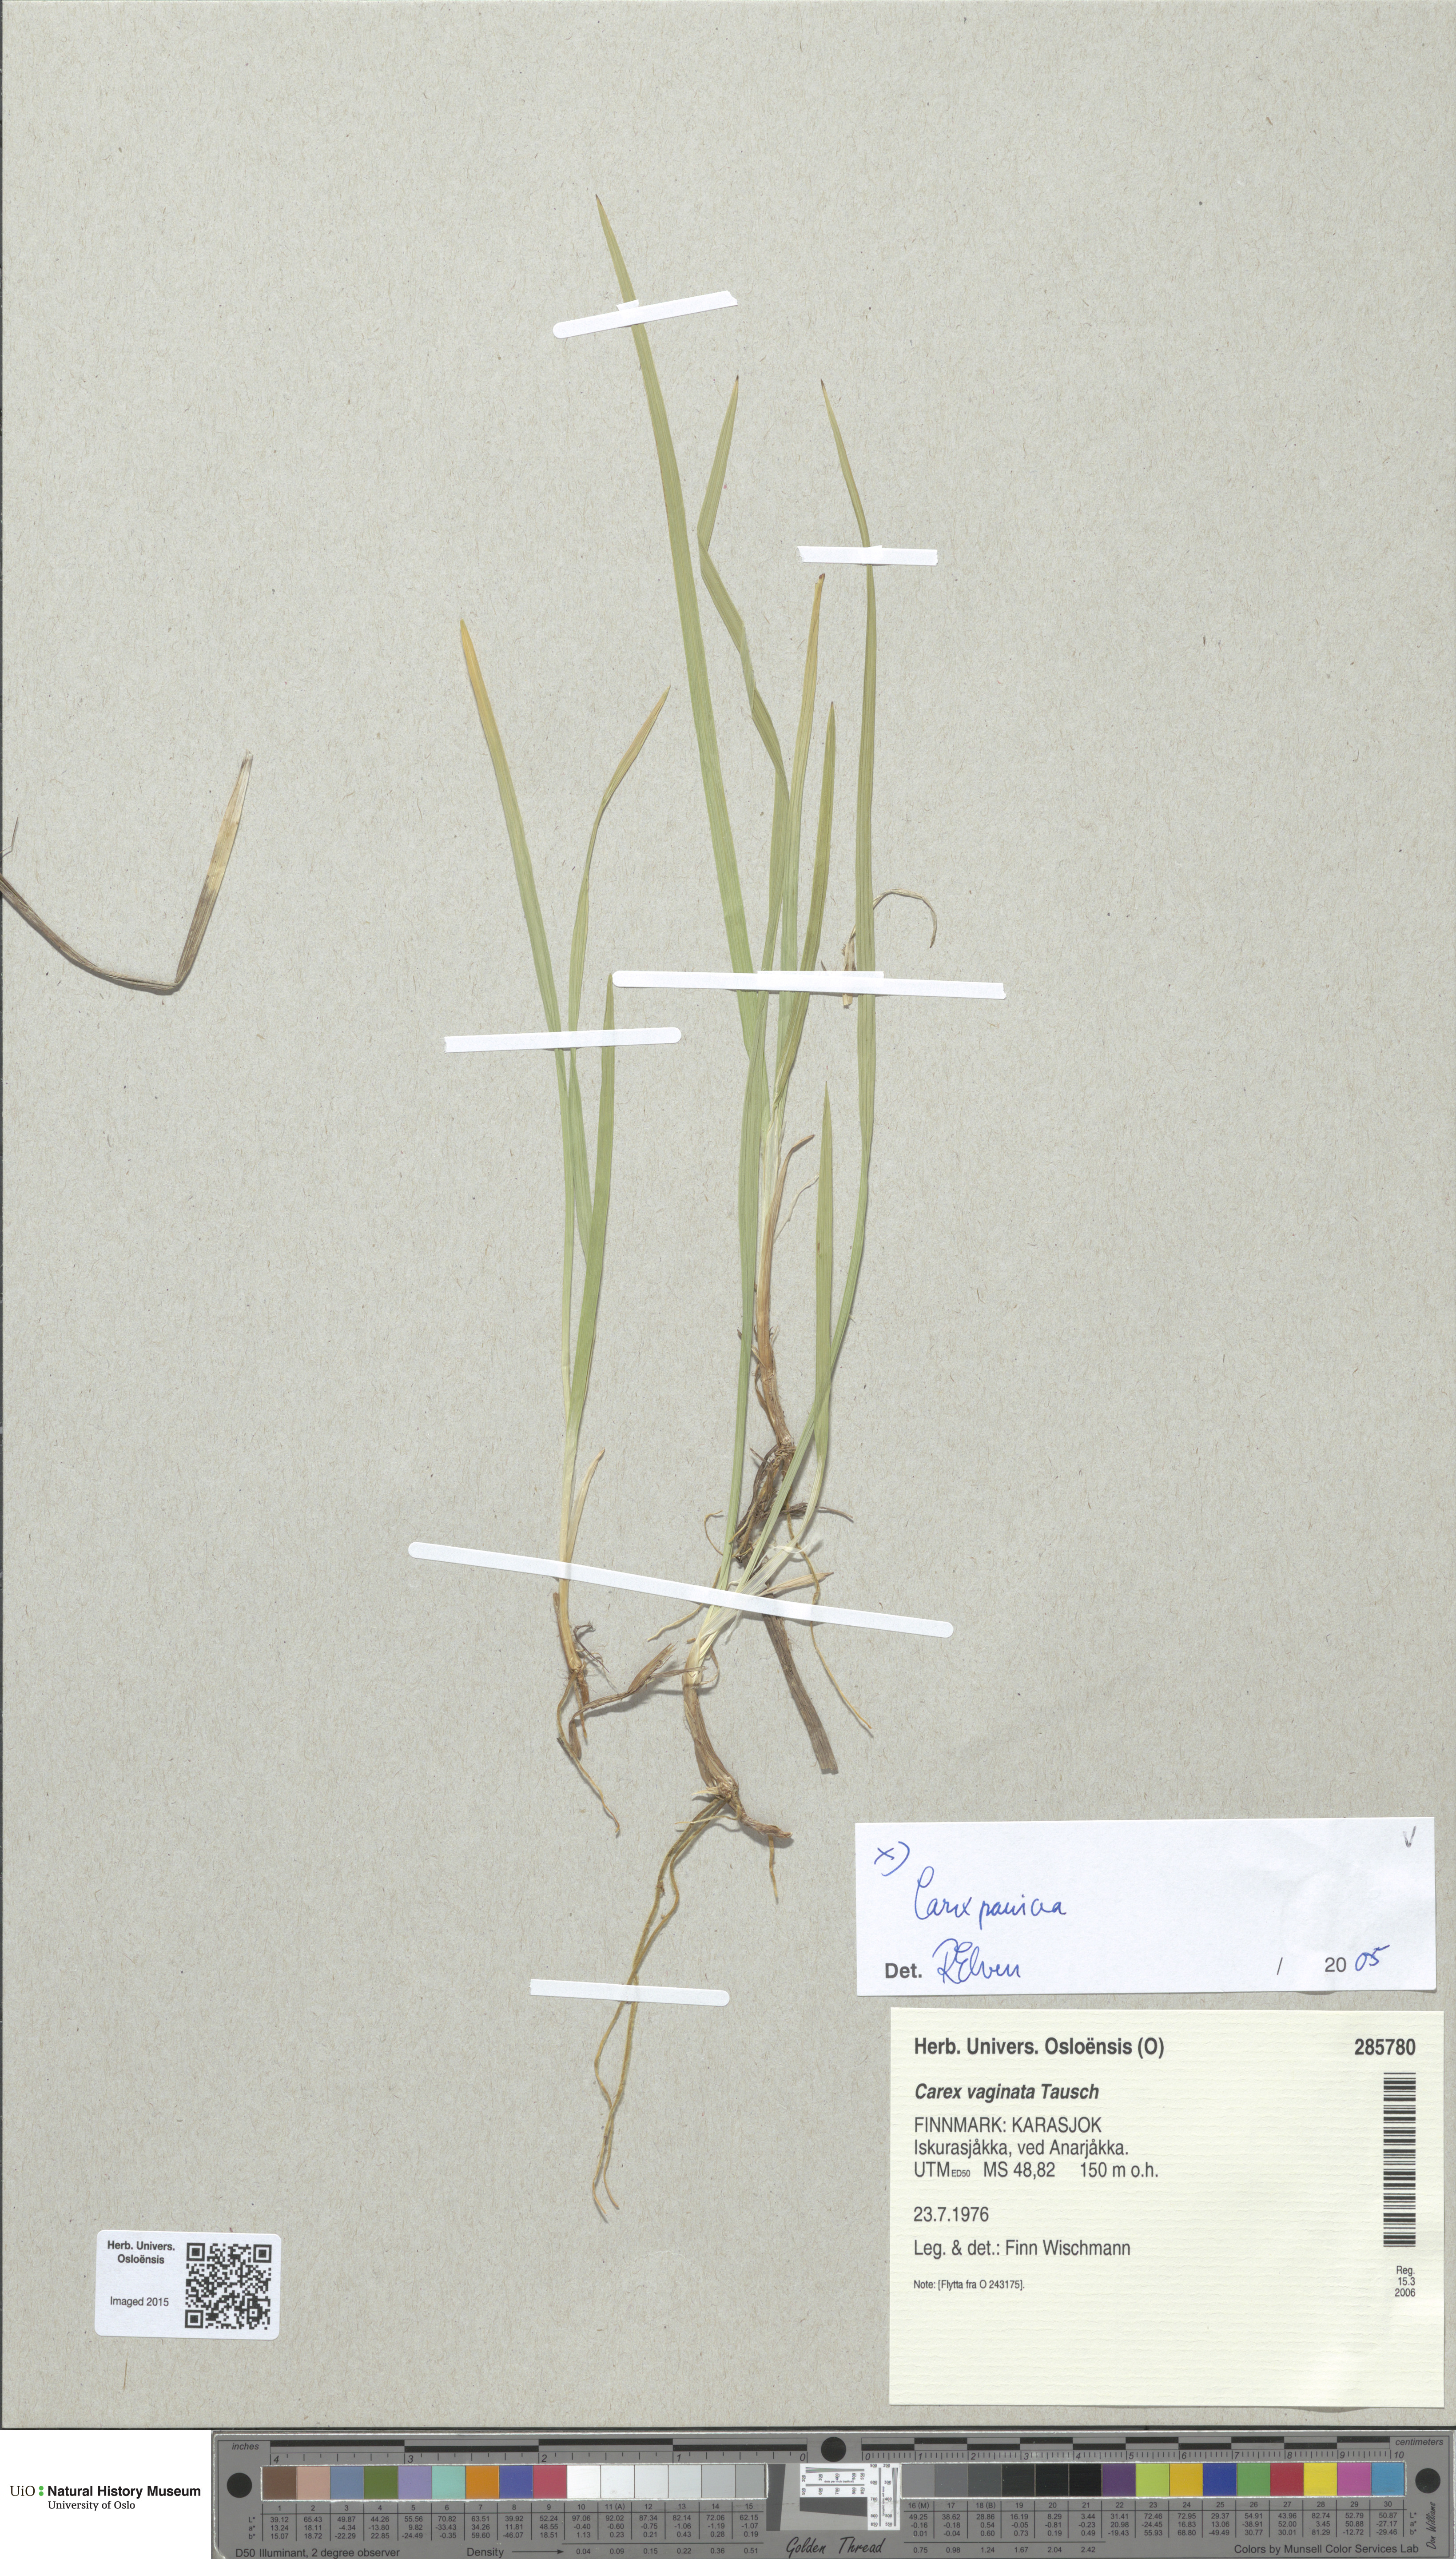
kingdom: Plantae
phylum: Tracheophyta
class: Liliopsida
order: Poales
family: Cyperaceae
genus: Carex
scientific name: Carex panicea
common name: Carnation sedge
